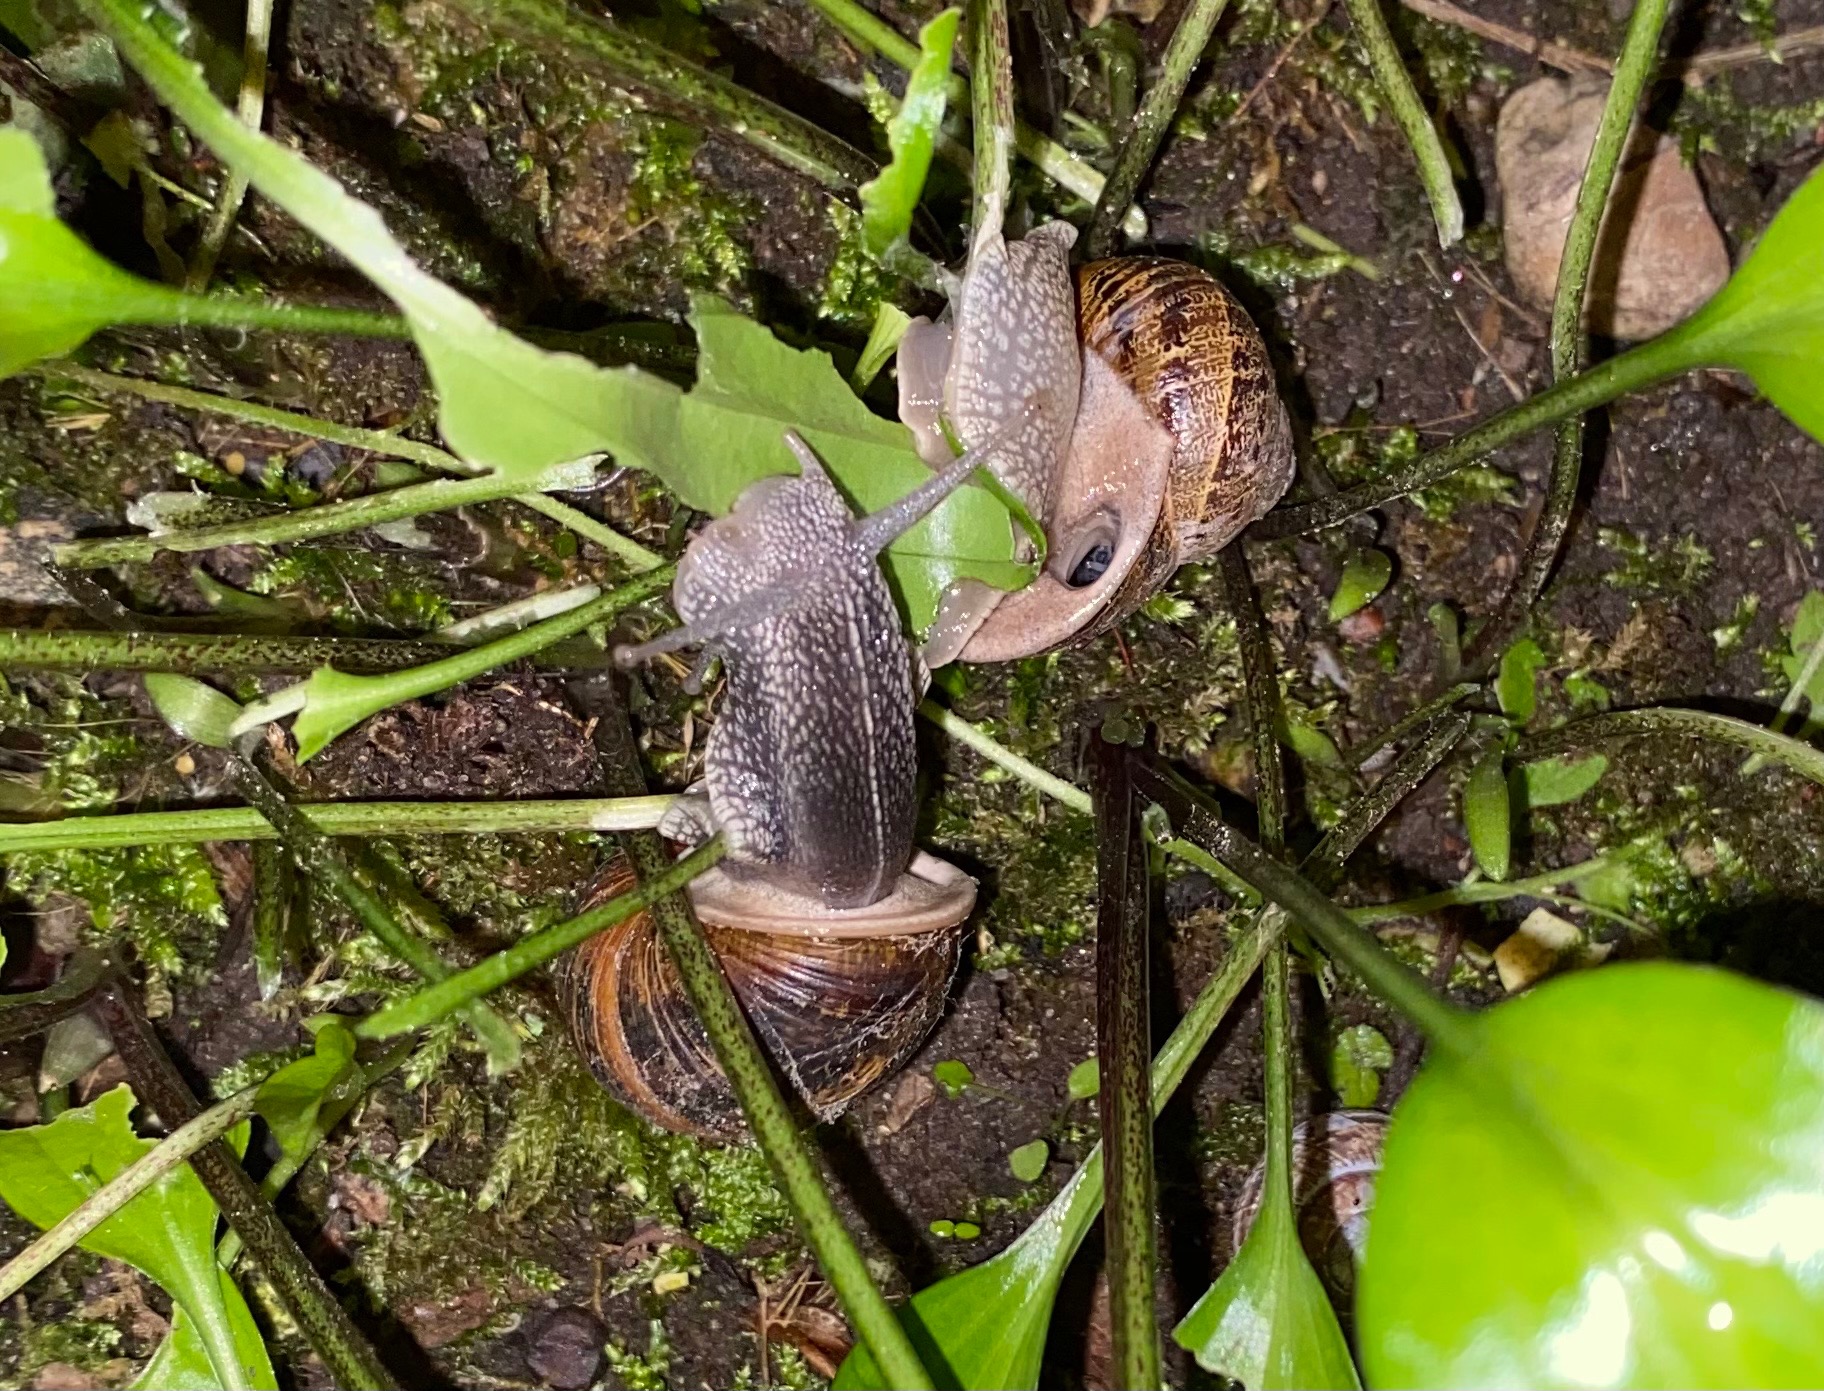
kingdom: Animalia
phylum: Mollusca
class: Gastropoda
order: Stylommatophora
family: Helicidae
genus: Cornu
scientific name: Cornu aspersum
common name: Plettet voldsnegl
